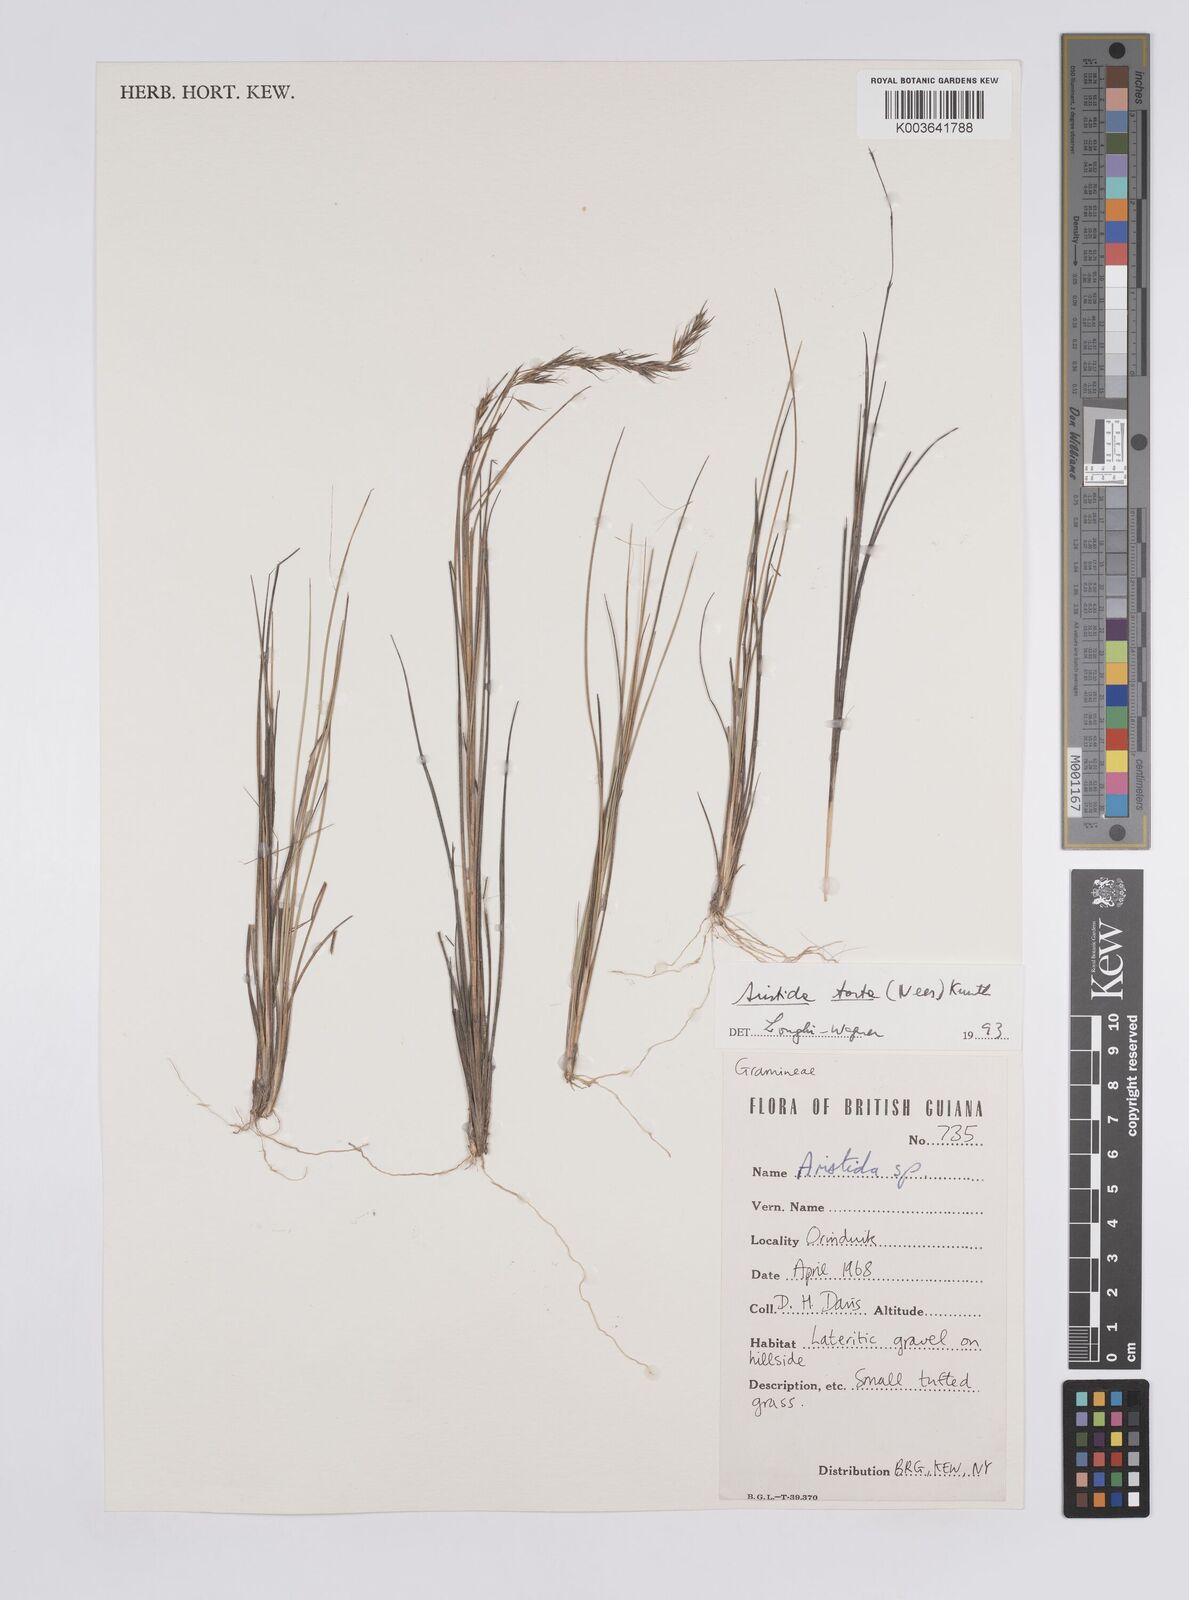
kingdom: Plantae
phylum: Tracheophyta
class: Liliopsida
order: Poales
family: Poaceae
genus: Aristida
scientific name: Aristida torta
